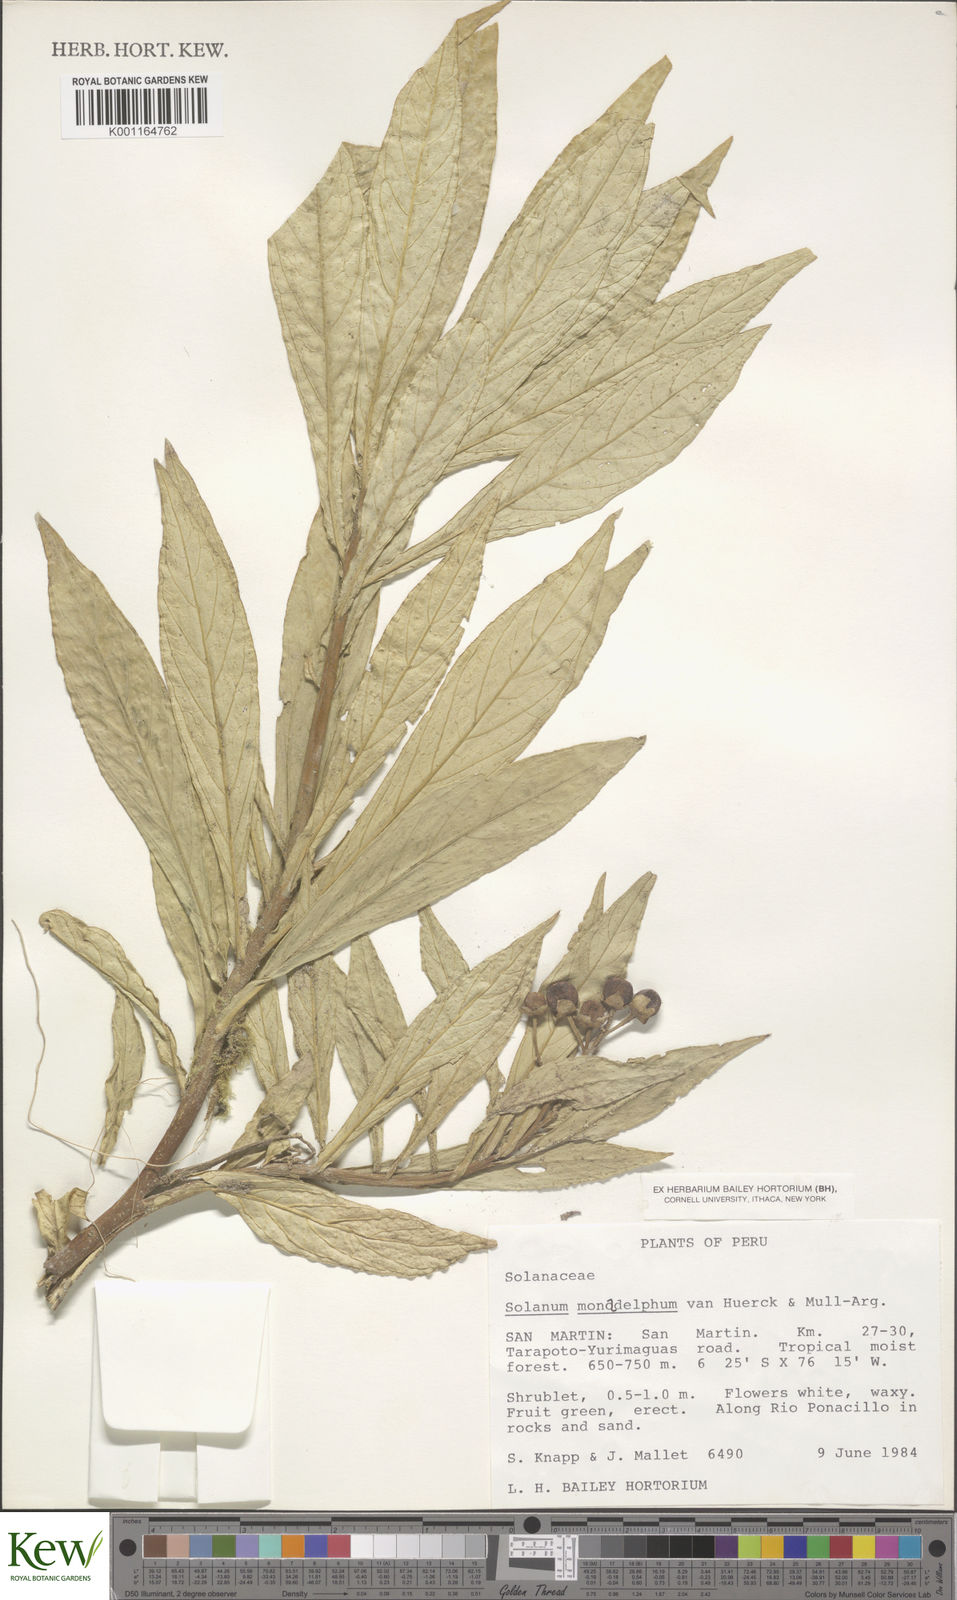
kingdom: Plantae
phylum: Tracheophyta
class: Magnoliopsida
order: Solanales
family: Solanaceae
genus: Solanum
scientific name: Solanum monadelphum
